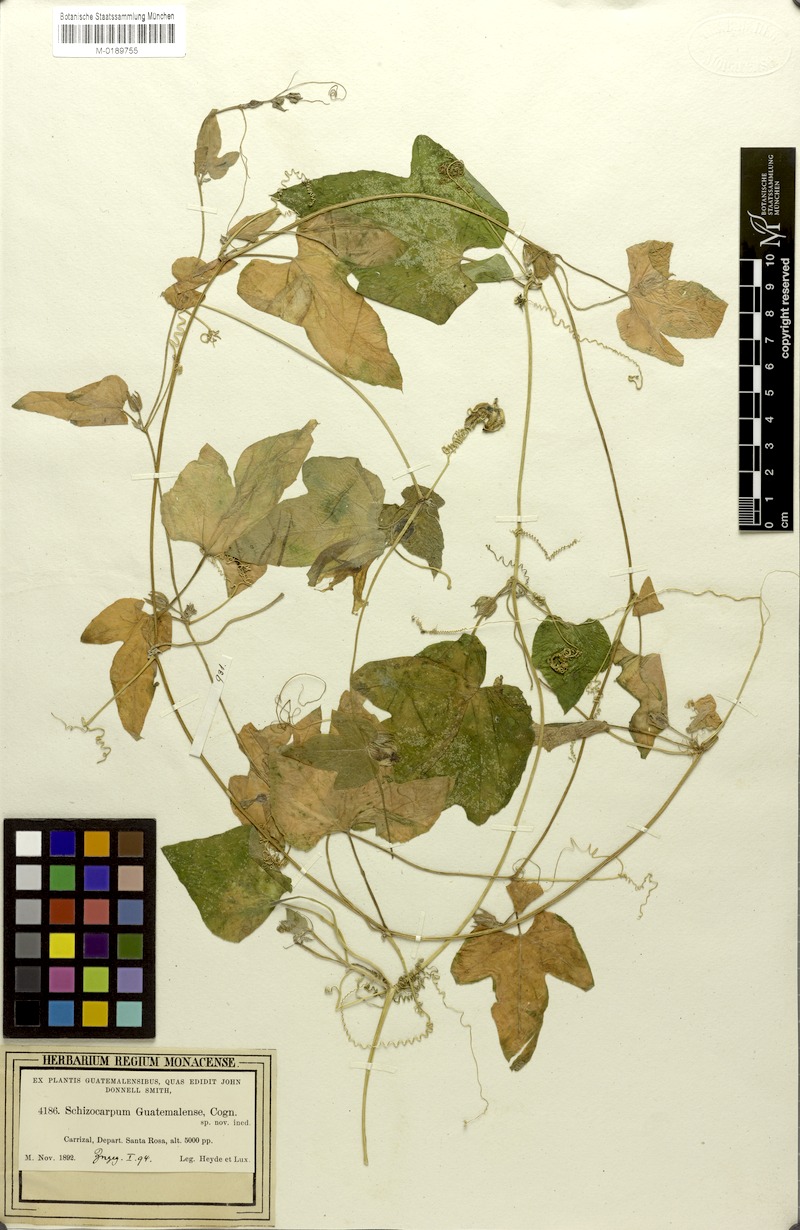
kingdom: Plantae
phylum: Tracheophyta
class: Magnoliopsida
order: Cucurbitales
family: Cucurbitaceae
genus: Schizocarpum
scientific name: Schizocarpum filiforme
